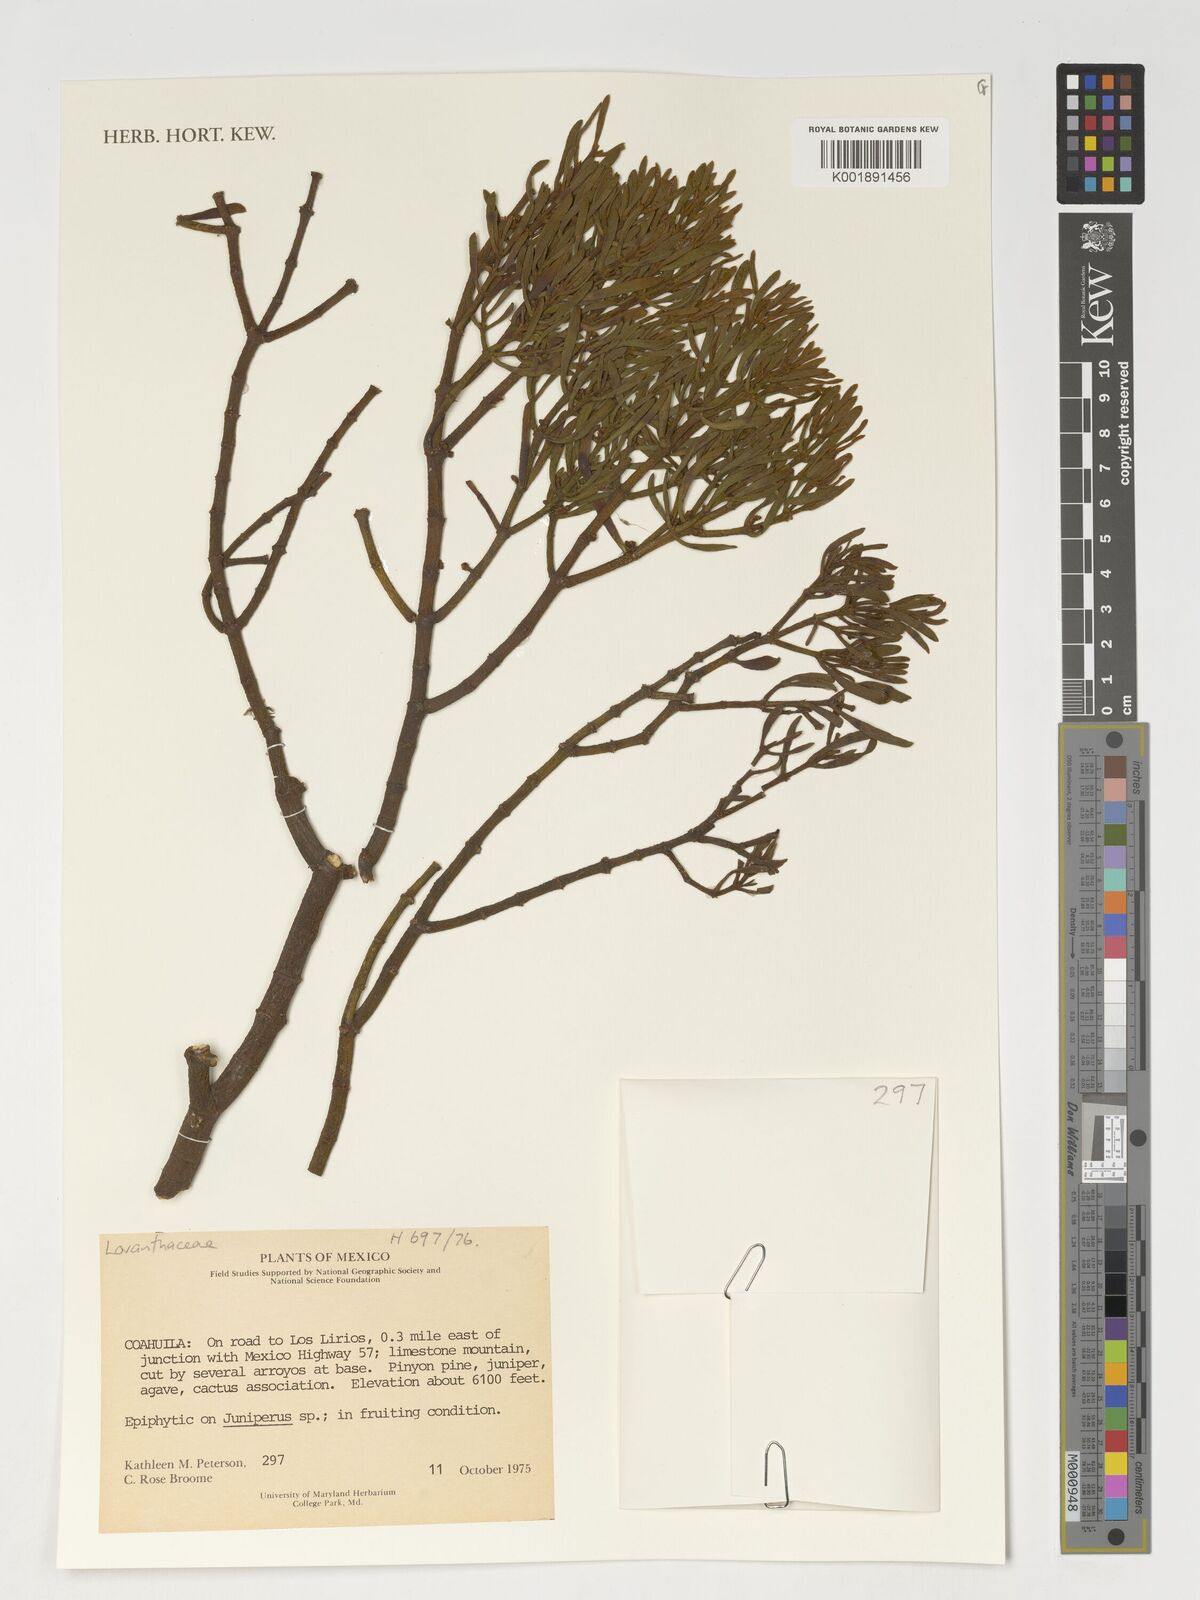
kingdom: Plantae
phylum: Tracheophyta
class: Magnoliopsida
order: Santalales
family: Loranthaceae
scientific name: Loranthaceae
